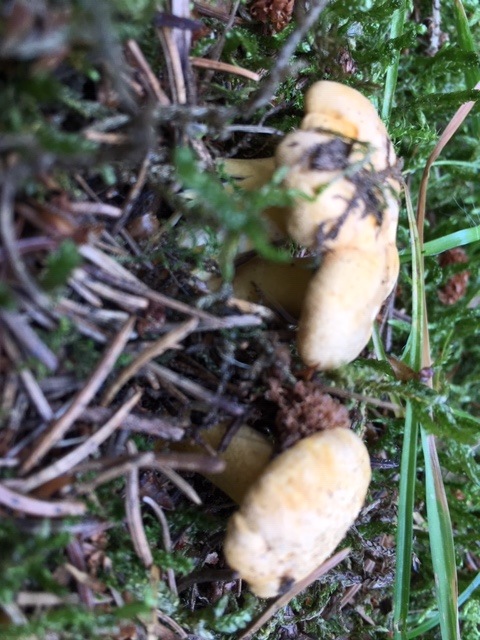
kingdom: Fungi
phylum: Basidiomycota
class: Agaricomycetes
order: Cantharellales
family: Hydnaceae
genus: Cantharellus
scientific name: Cantharellus cibarius
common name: almindelig kantarel
